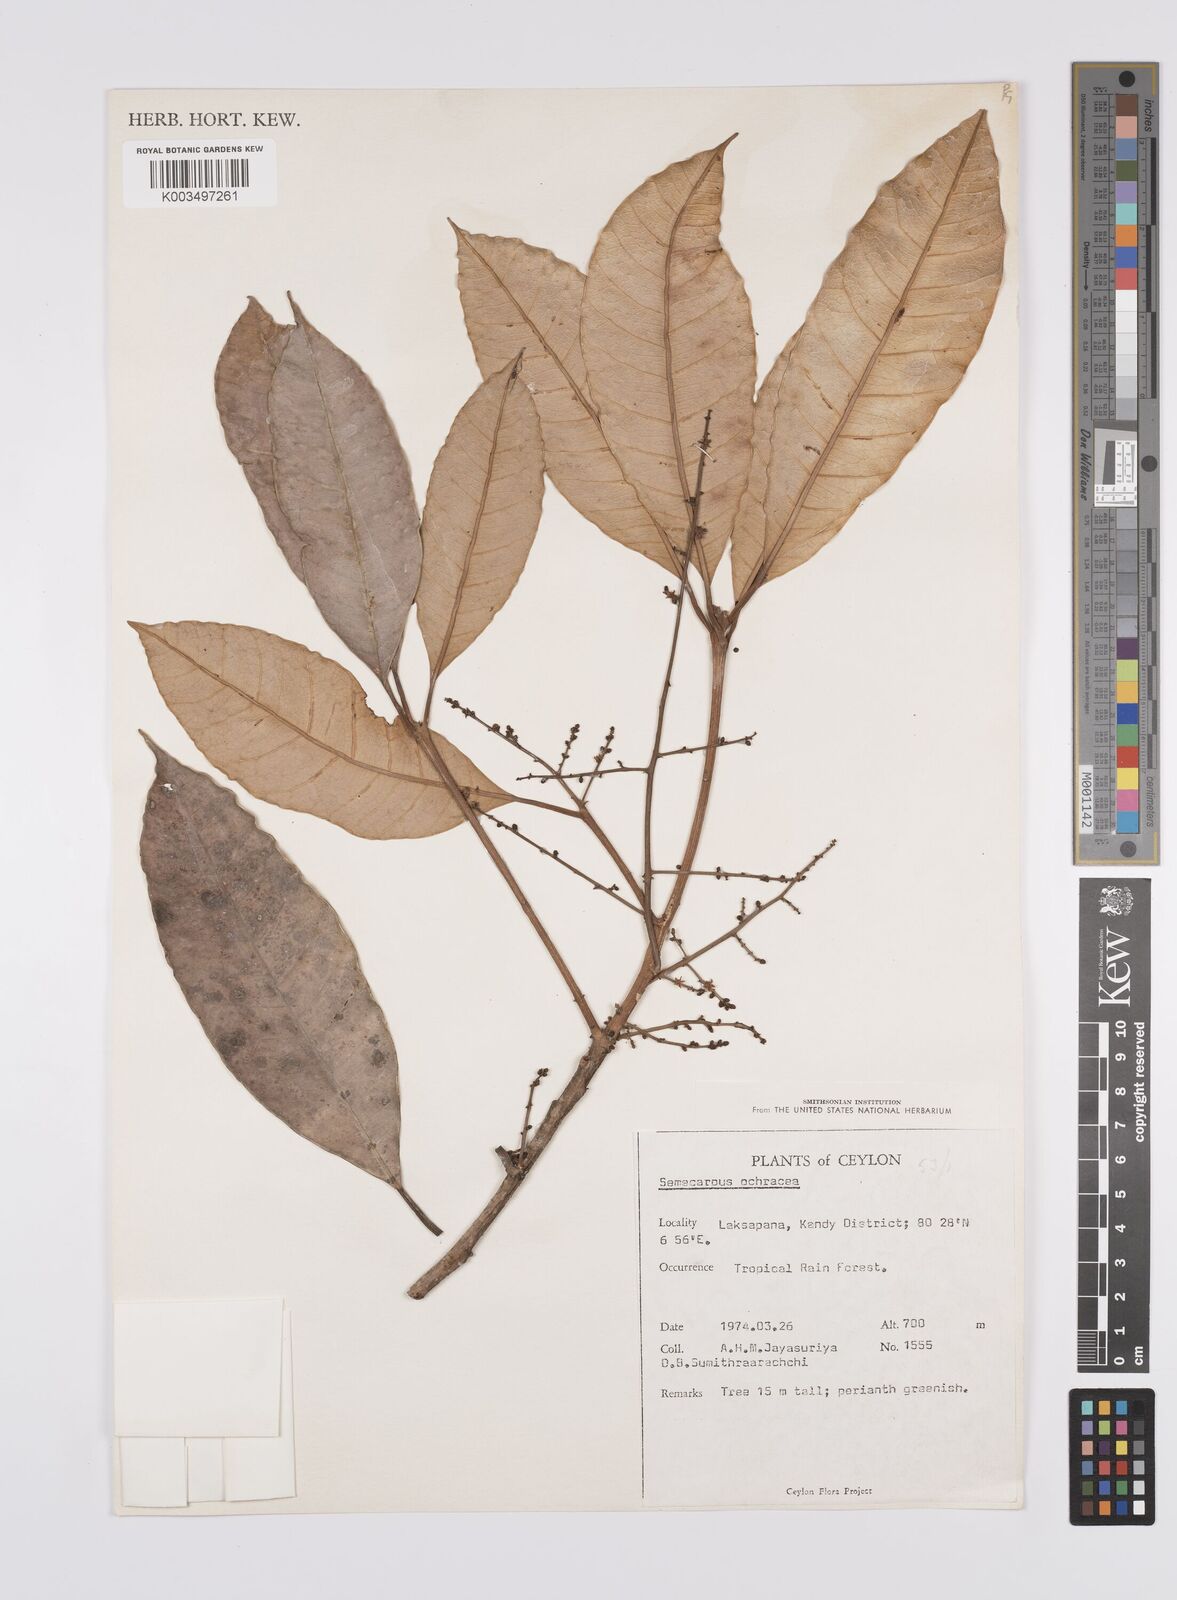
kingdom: Plantae
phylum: Tracheophyta
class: Magnoliopsida
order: Sapindales
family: Anacardiaceae
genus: Semecarpus
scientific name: Semecarpus ochraceus
